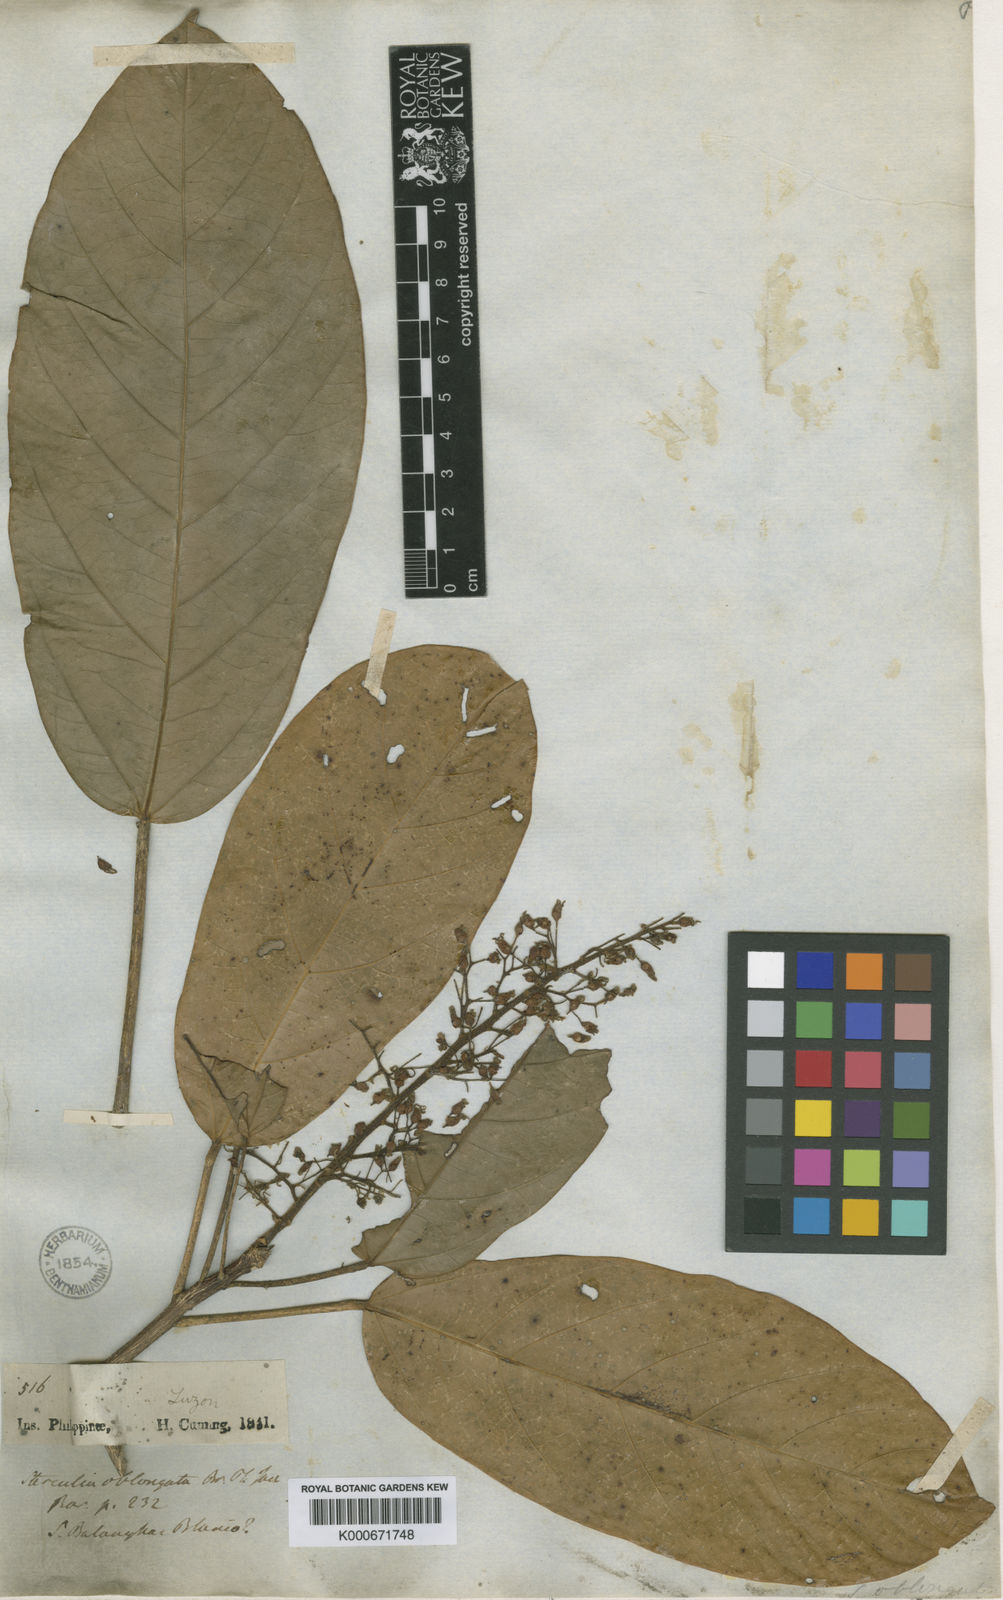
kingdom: Plantae
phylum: Tracheophyta
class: Magnoliopsida
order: Malvales
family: Malvaceae
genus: Sterculia
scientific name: Sterculia oblongata
